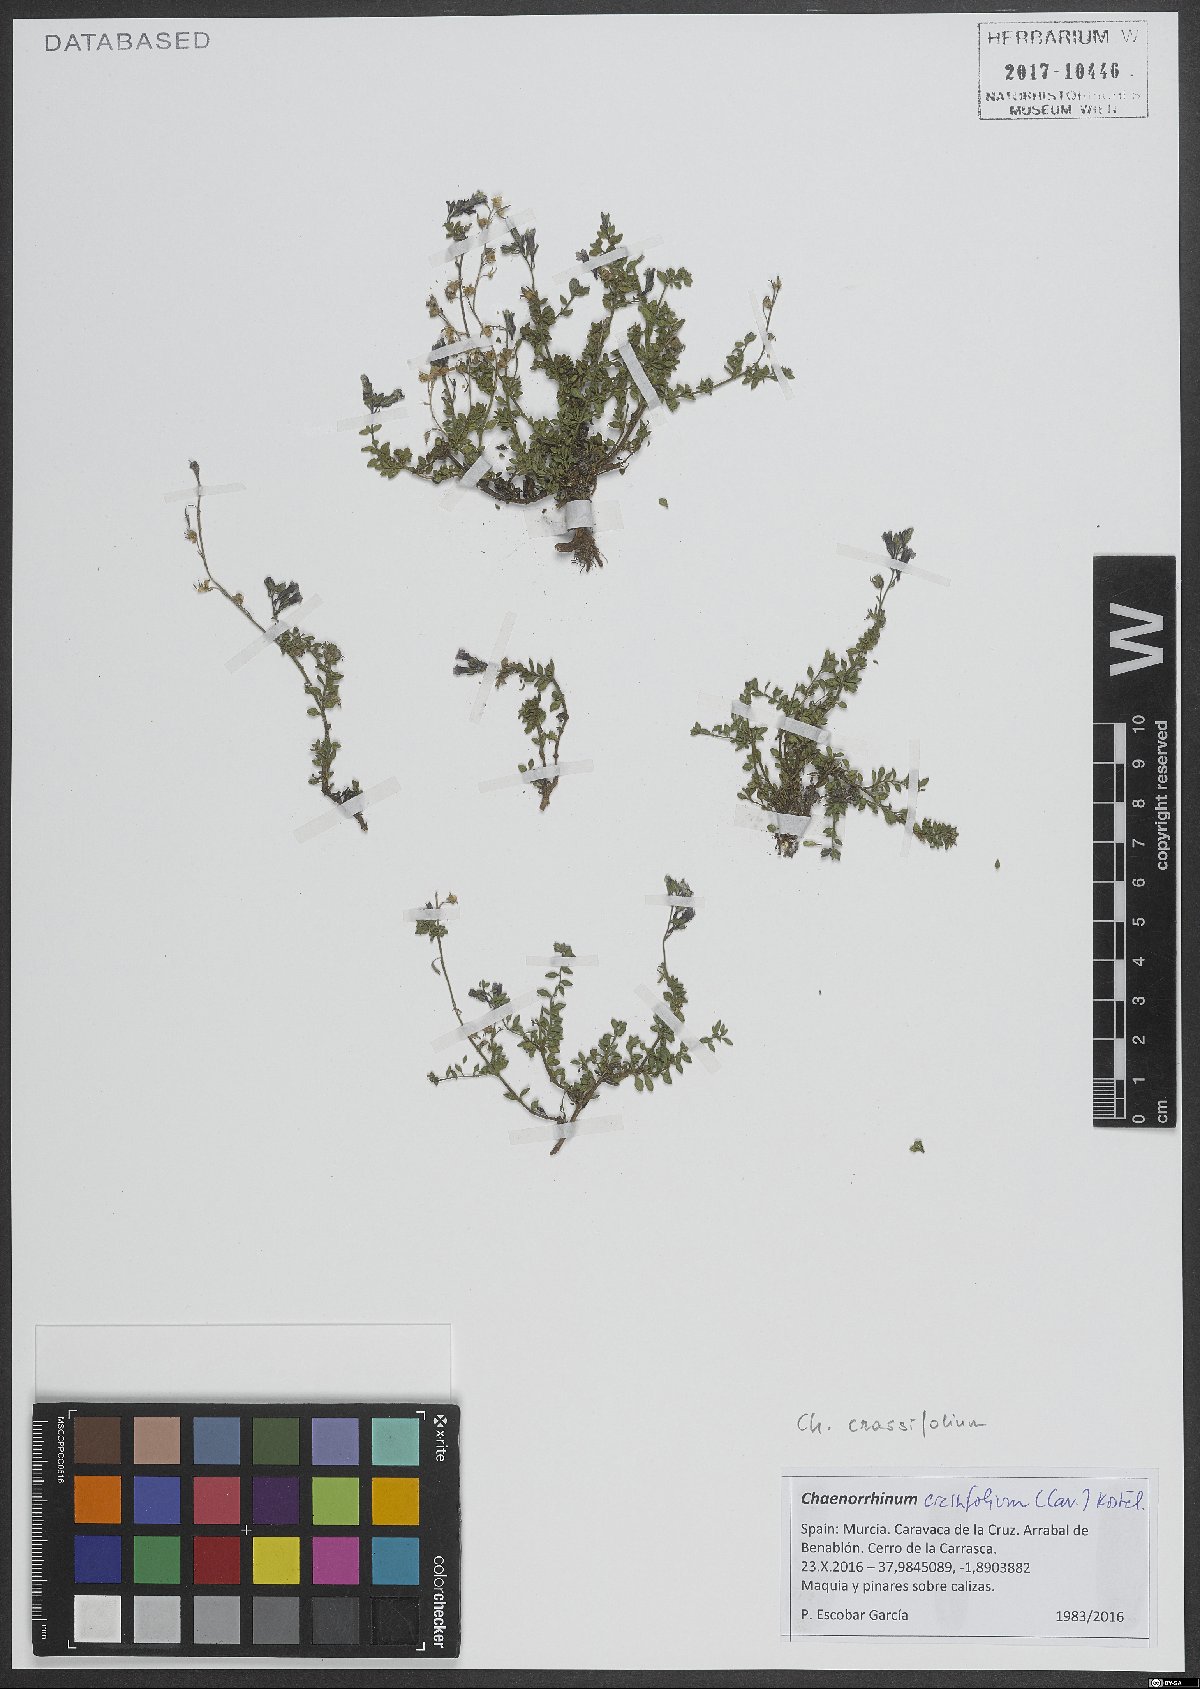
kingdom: Plantae
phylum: Tracheophyta
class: Magnoliopsida
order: Lamiales
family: Plantaginaceae
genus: Chaenorhinum
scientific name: Chaenorhinum crassifolium
